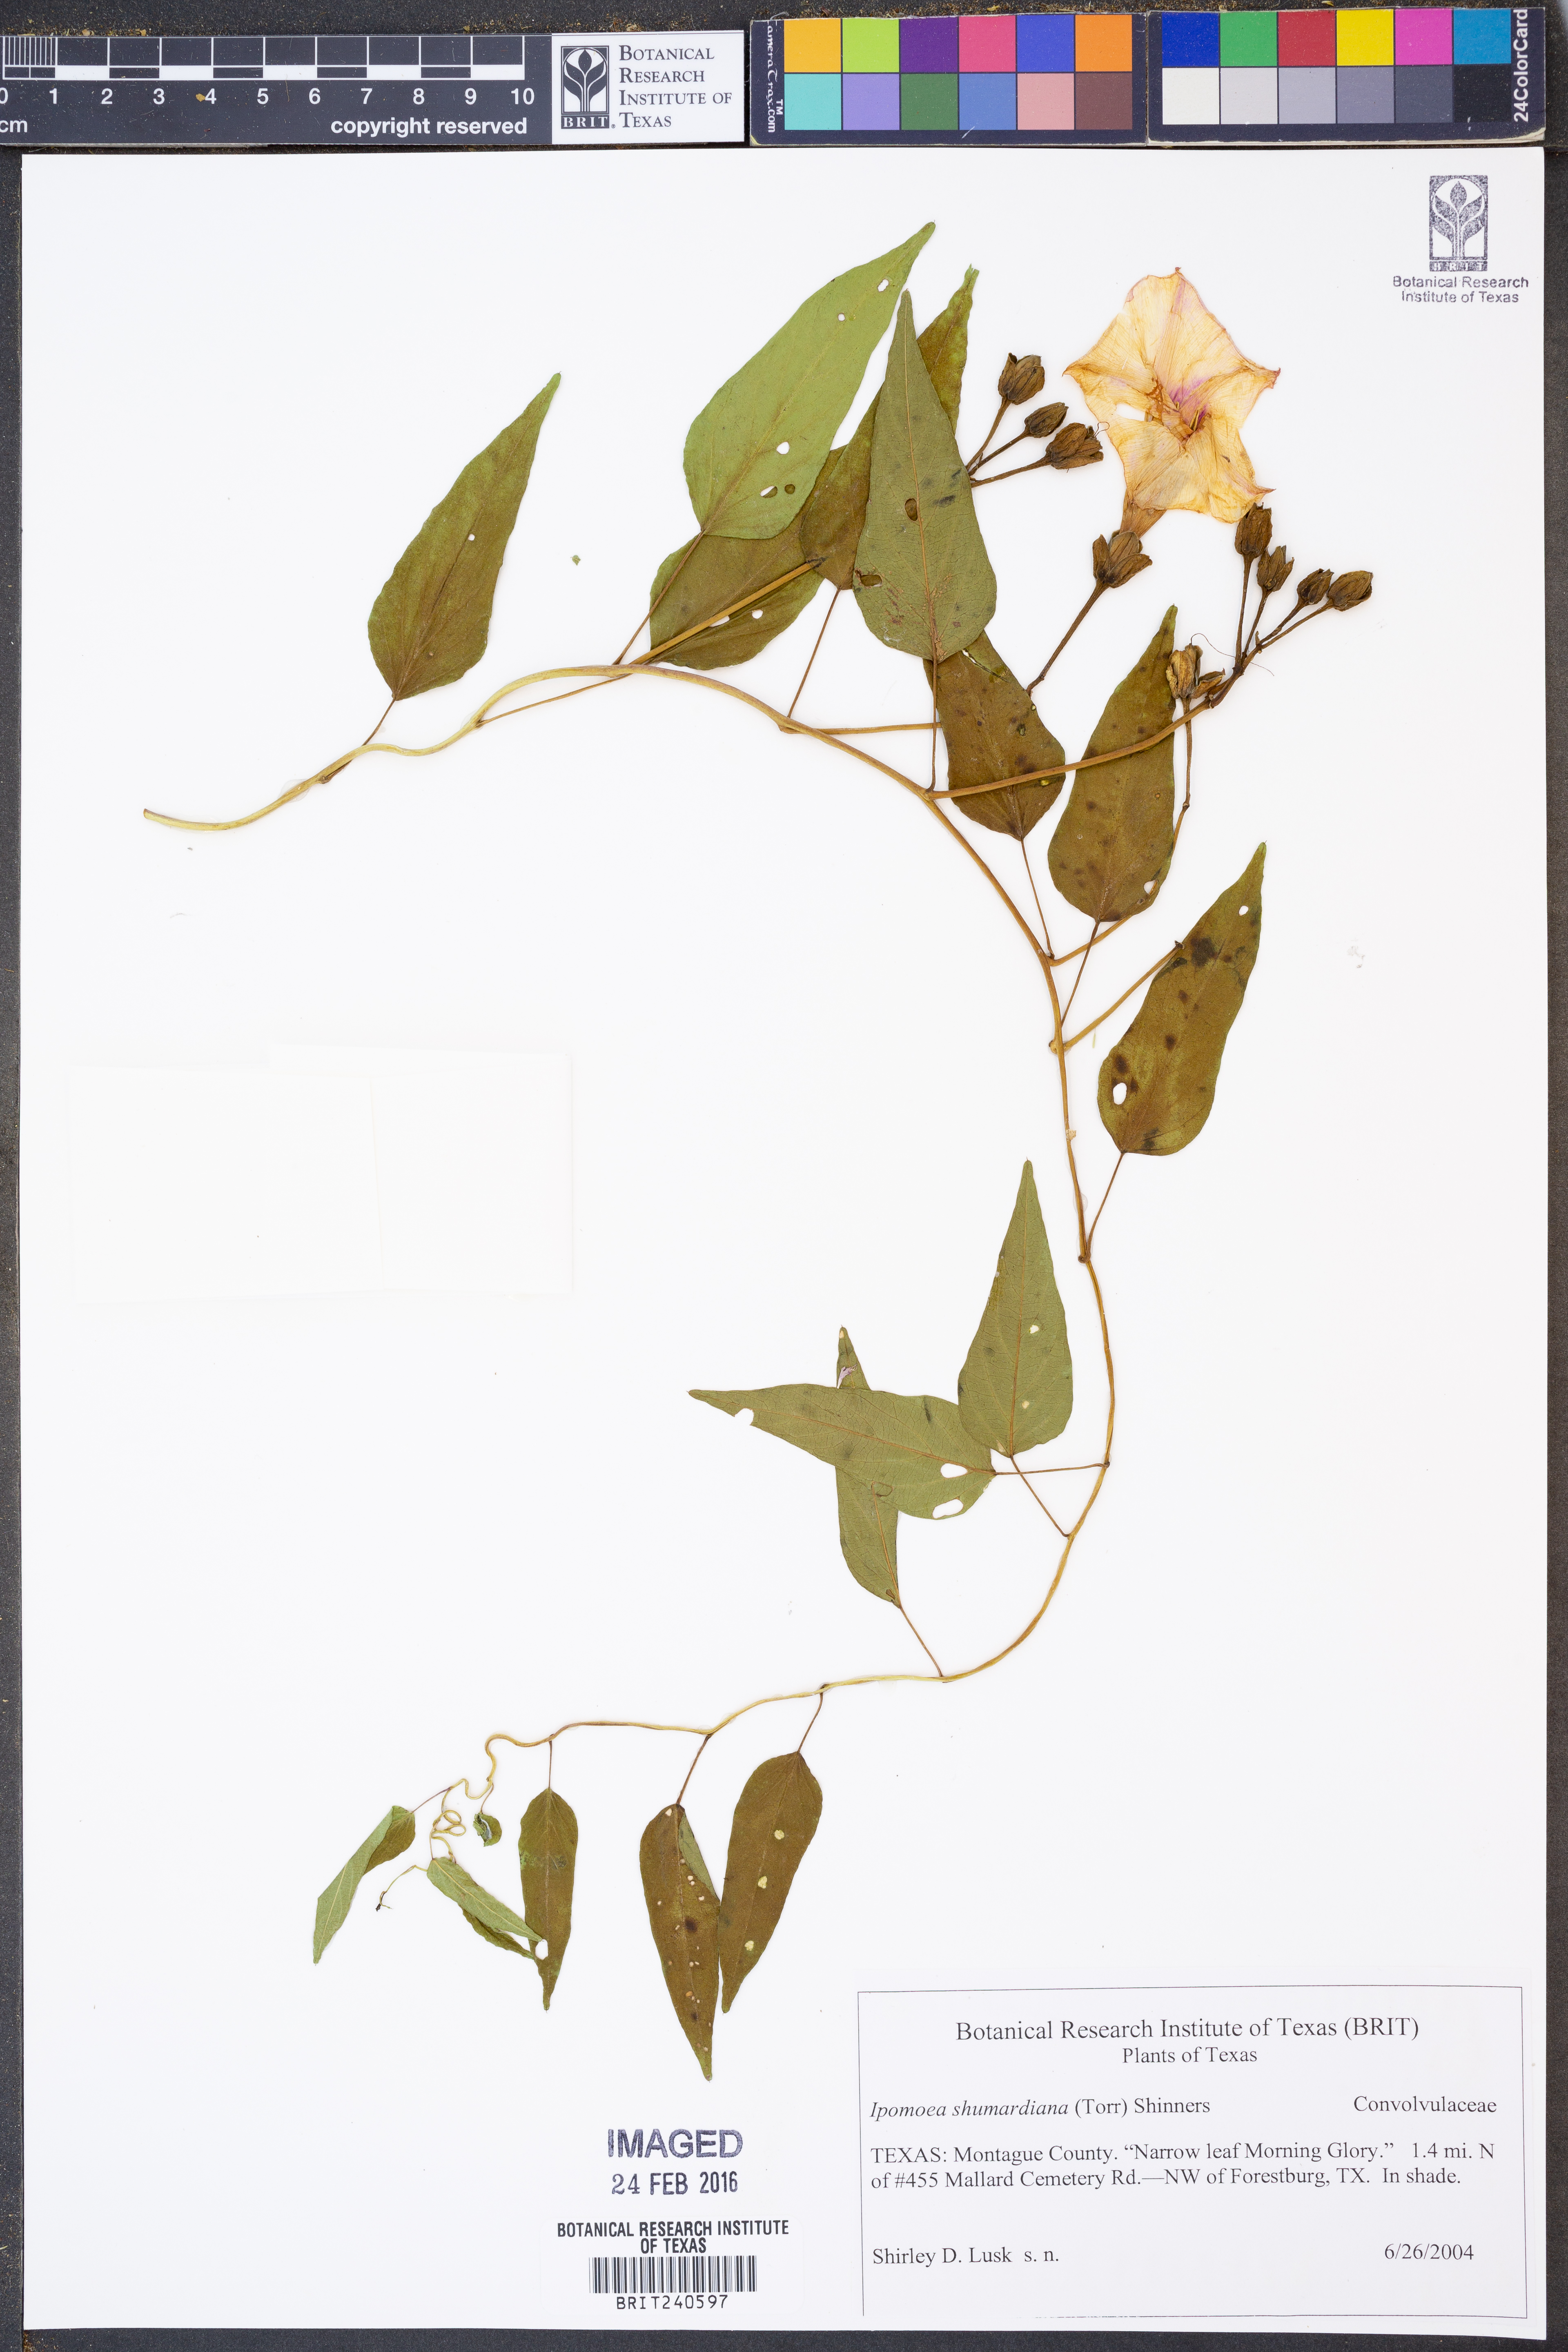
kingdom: Plantae
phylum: Tracheophyta
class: Magnoliopsida
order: Solanales
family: Convolvulaceae
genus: Ipomoea
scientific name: Ipomoea shumardiana
